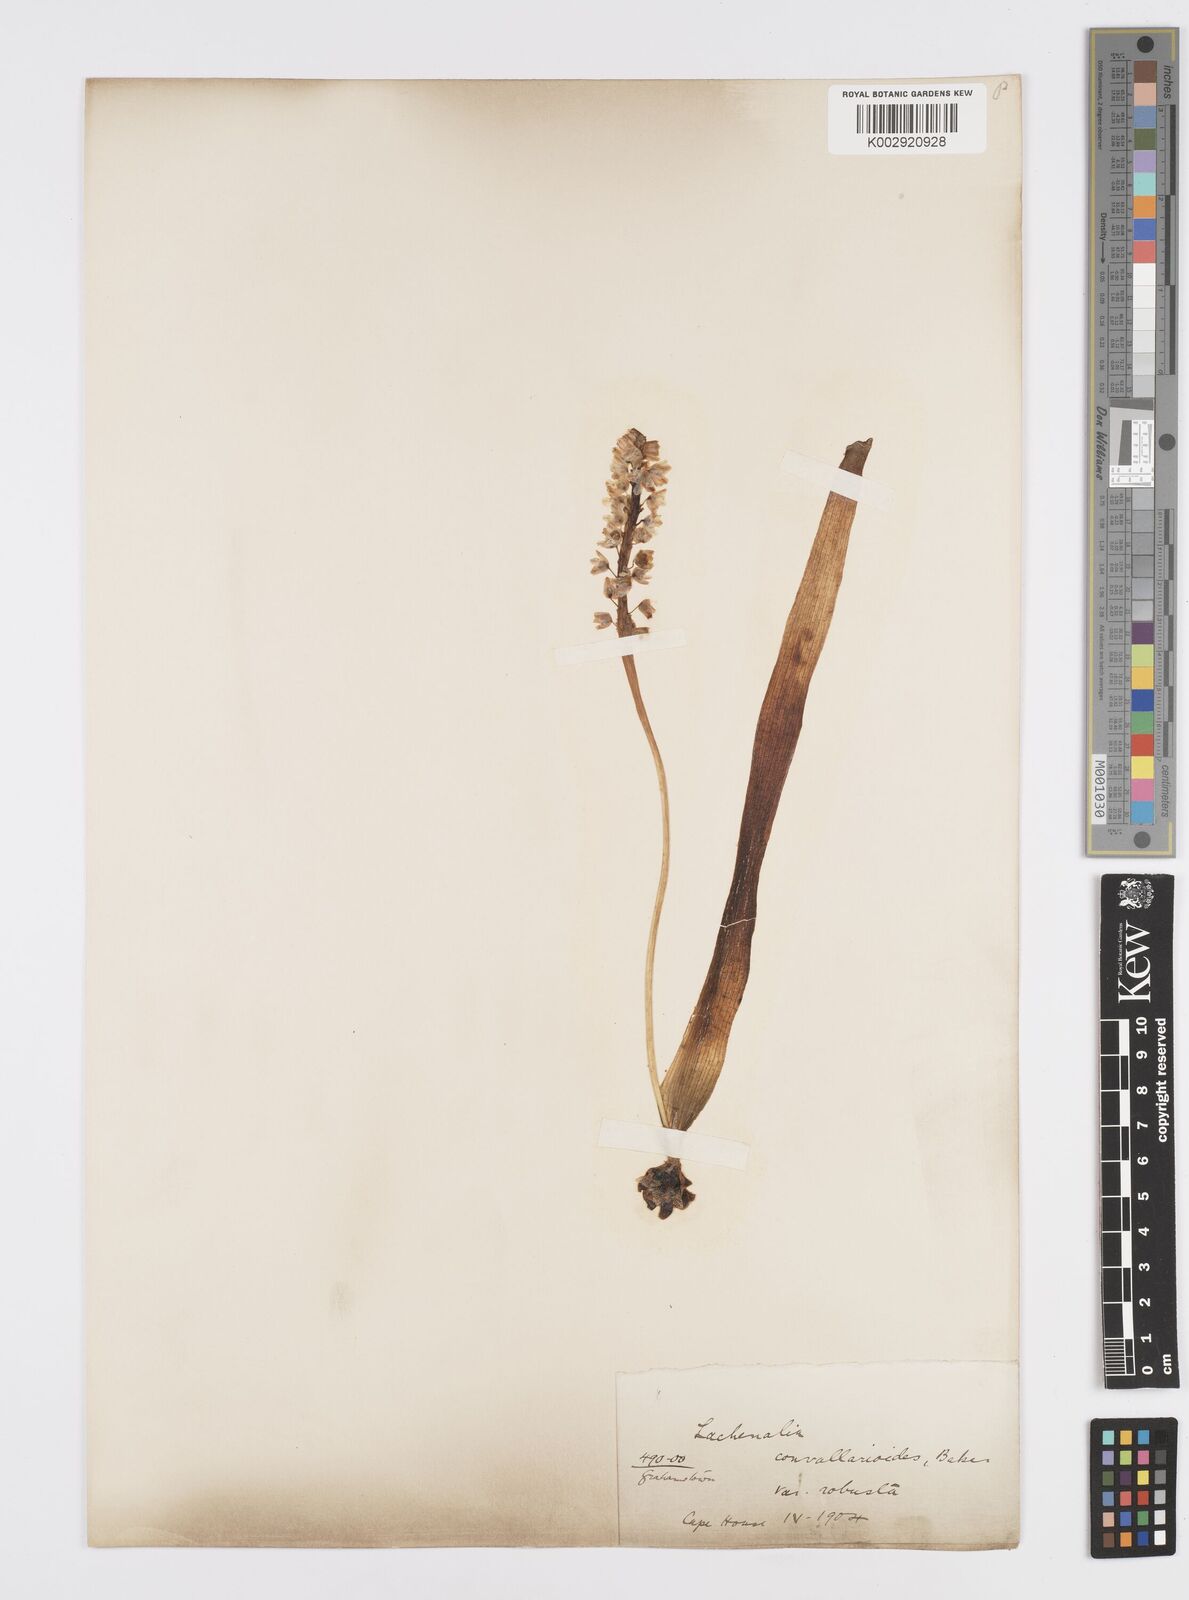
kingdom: Plantae
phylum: Tracheophyta
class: Liliopsida
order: Asparagales
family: Asparagaceae
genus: Lachenalia
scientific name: Lachenalia convallarioides
